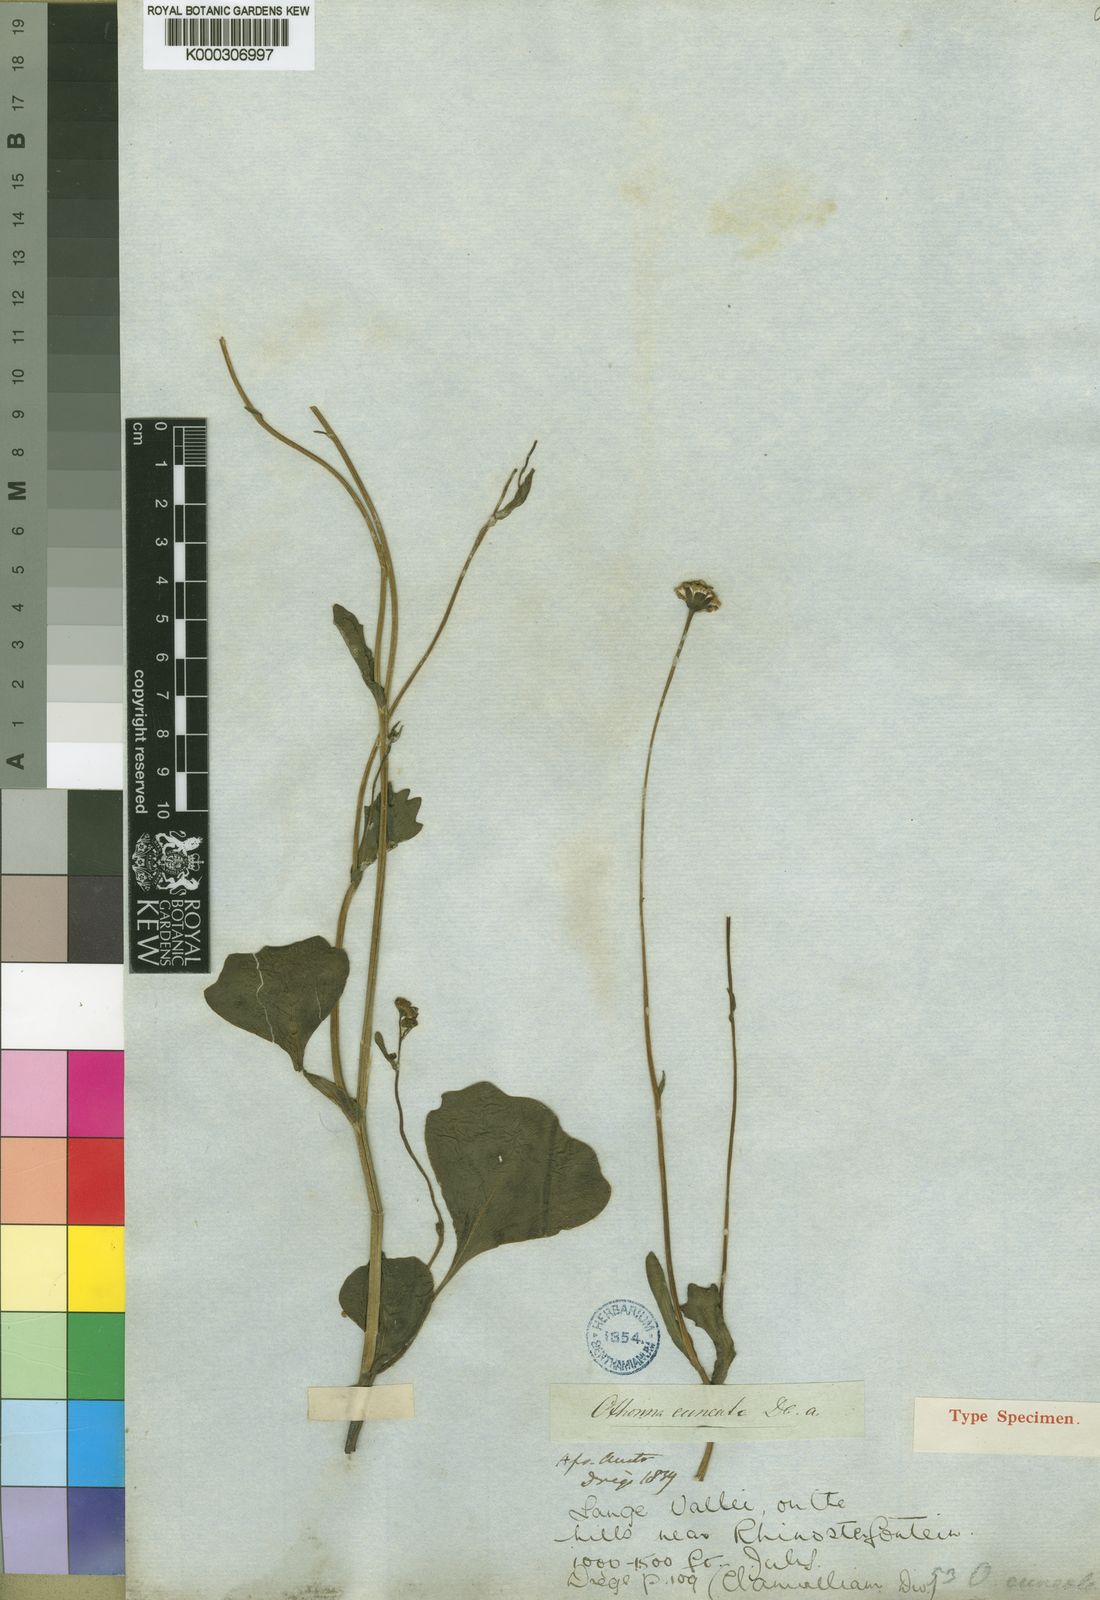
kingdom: Plantae
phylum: Tracheophyta
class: Magnoliopsida
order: Asterales
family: Asteraceae
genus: Othonna
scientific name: Othonna cuneata
